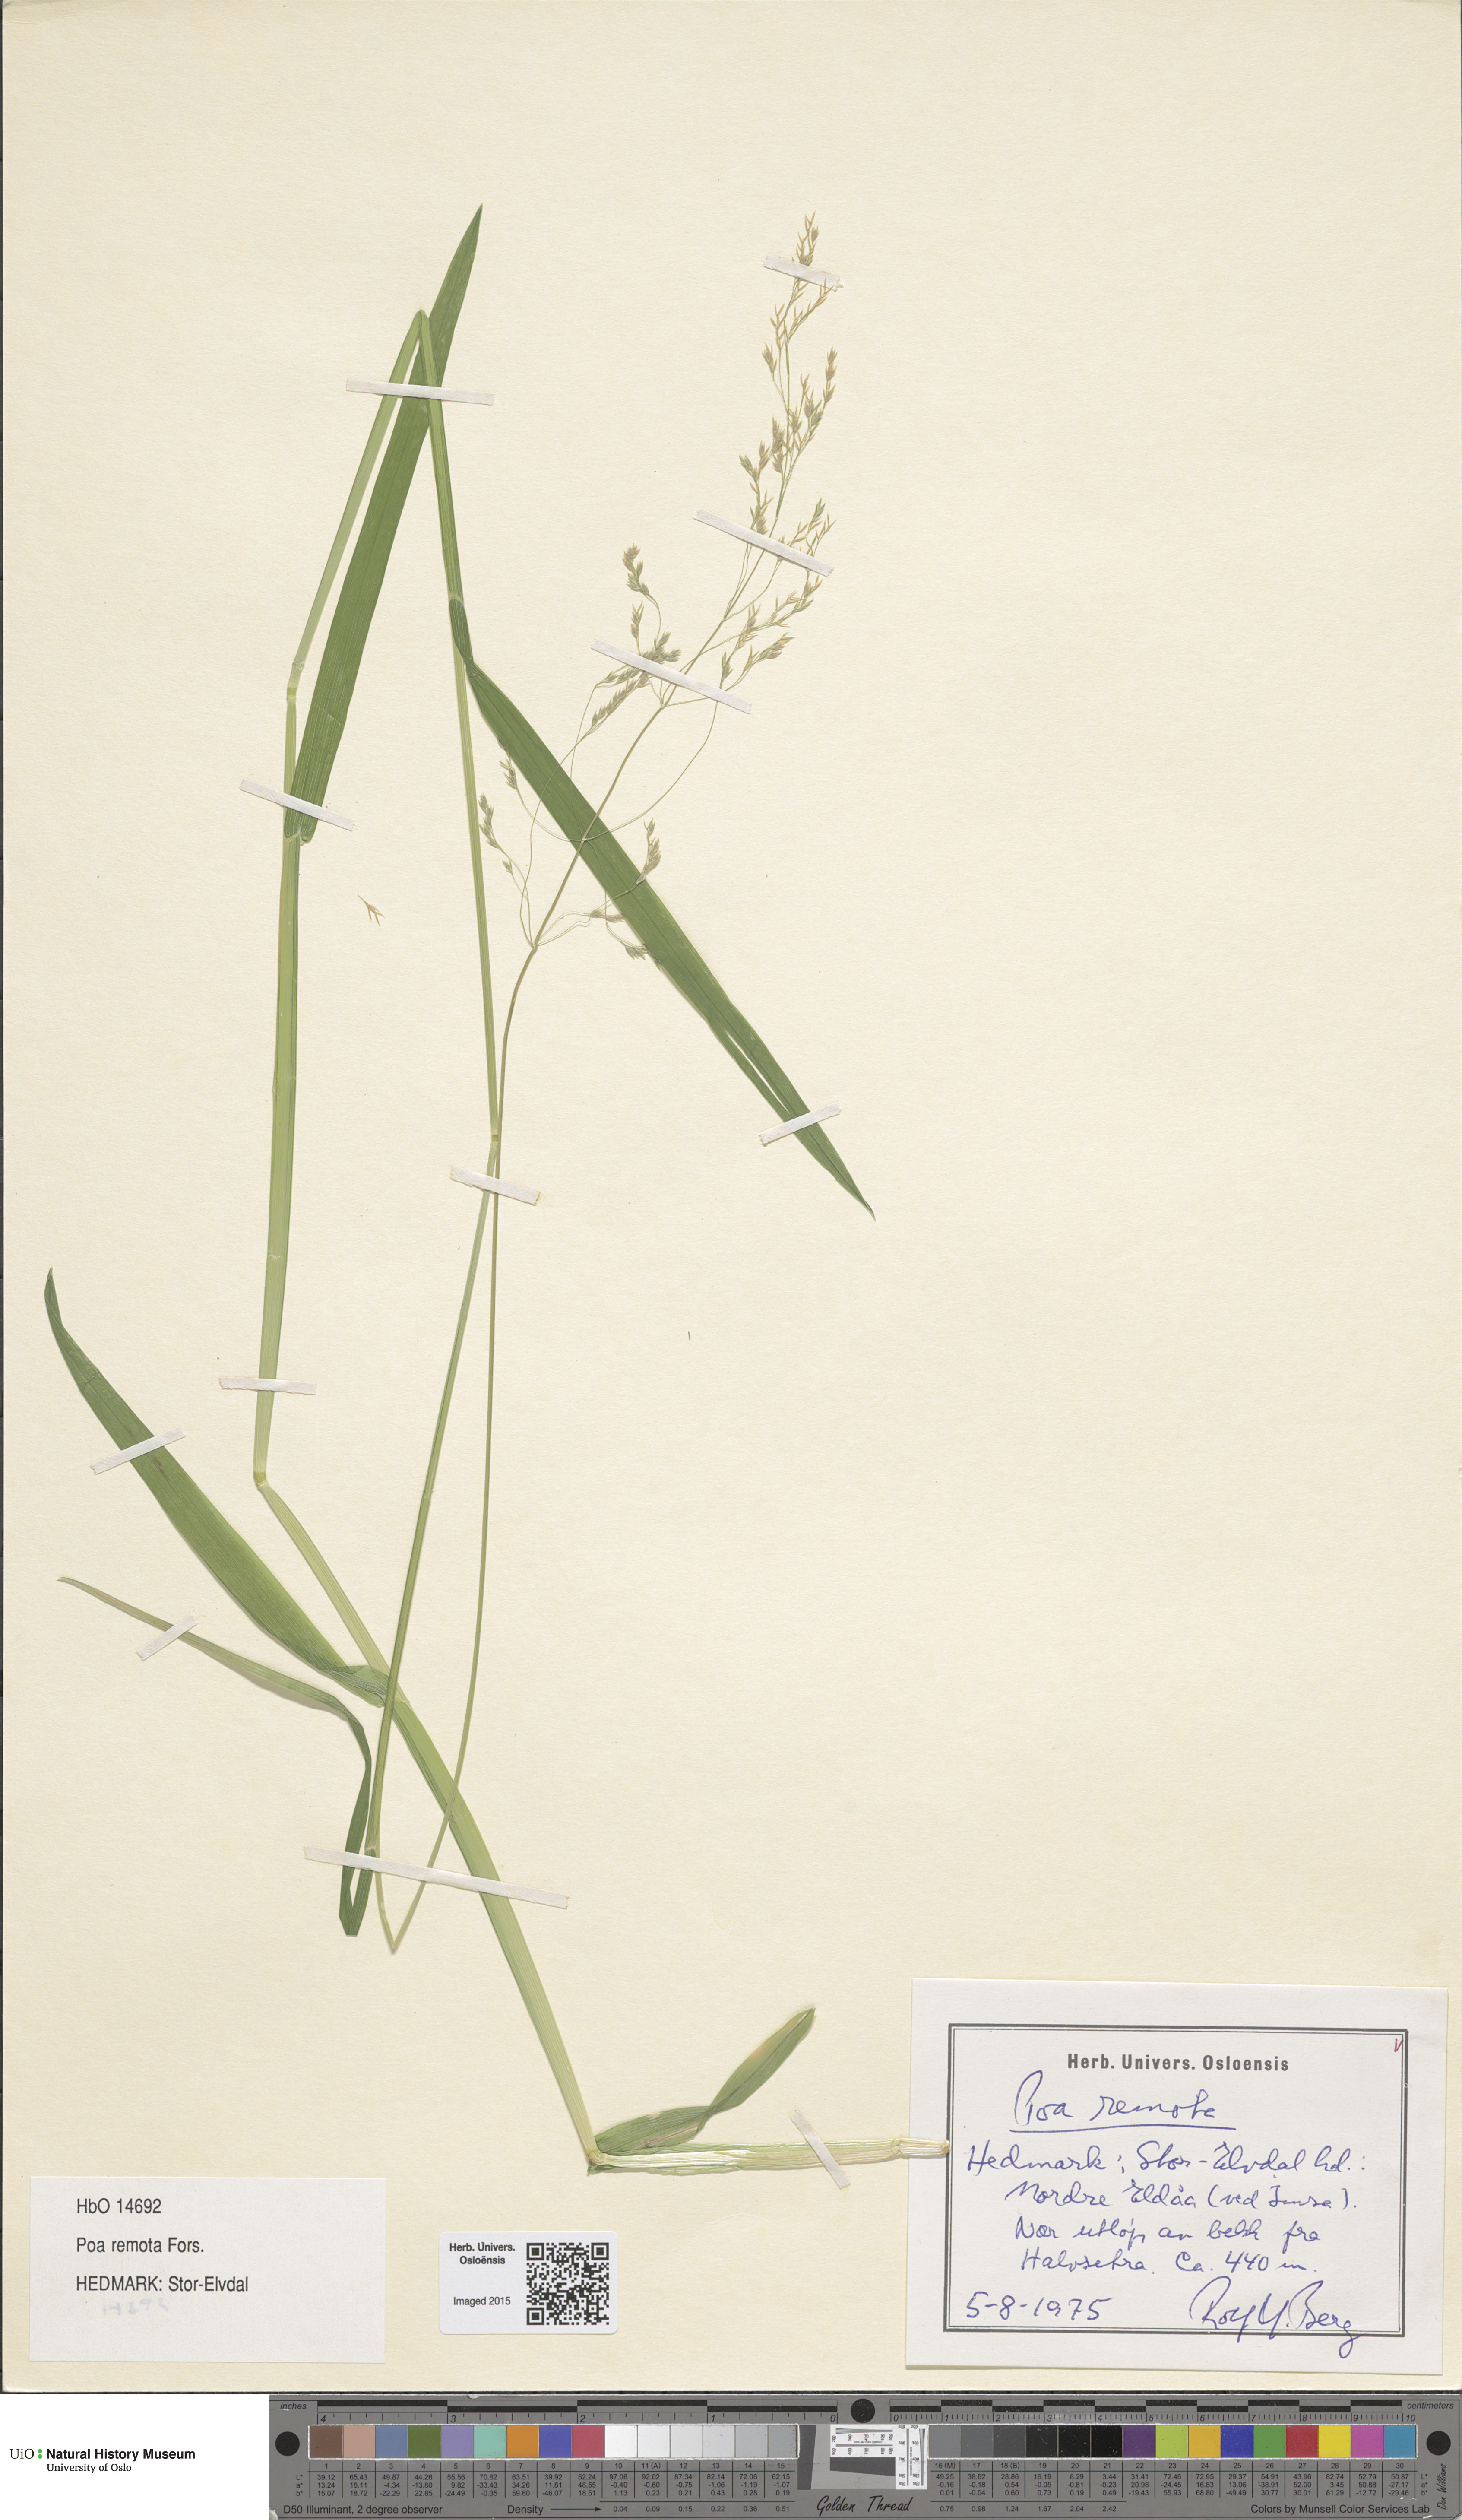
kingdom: Plantae
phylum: Tracheophyta
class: Liliopsida
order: Poales
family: Poaceae
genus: Poa
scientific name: Poa remota
